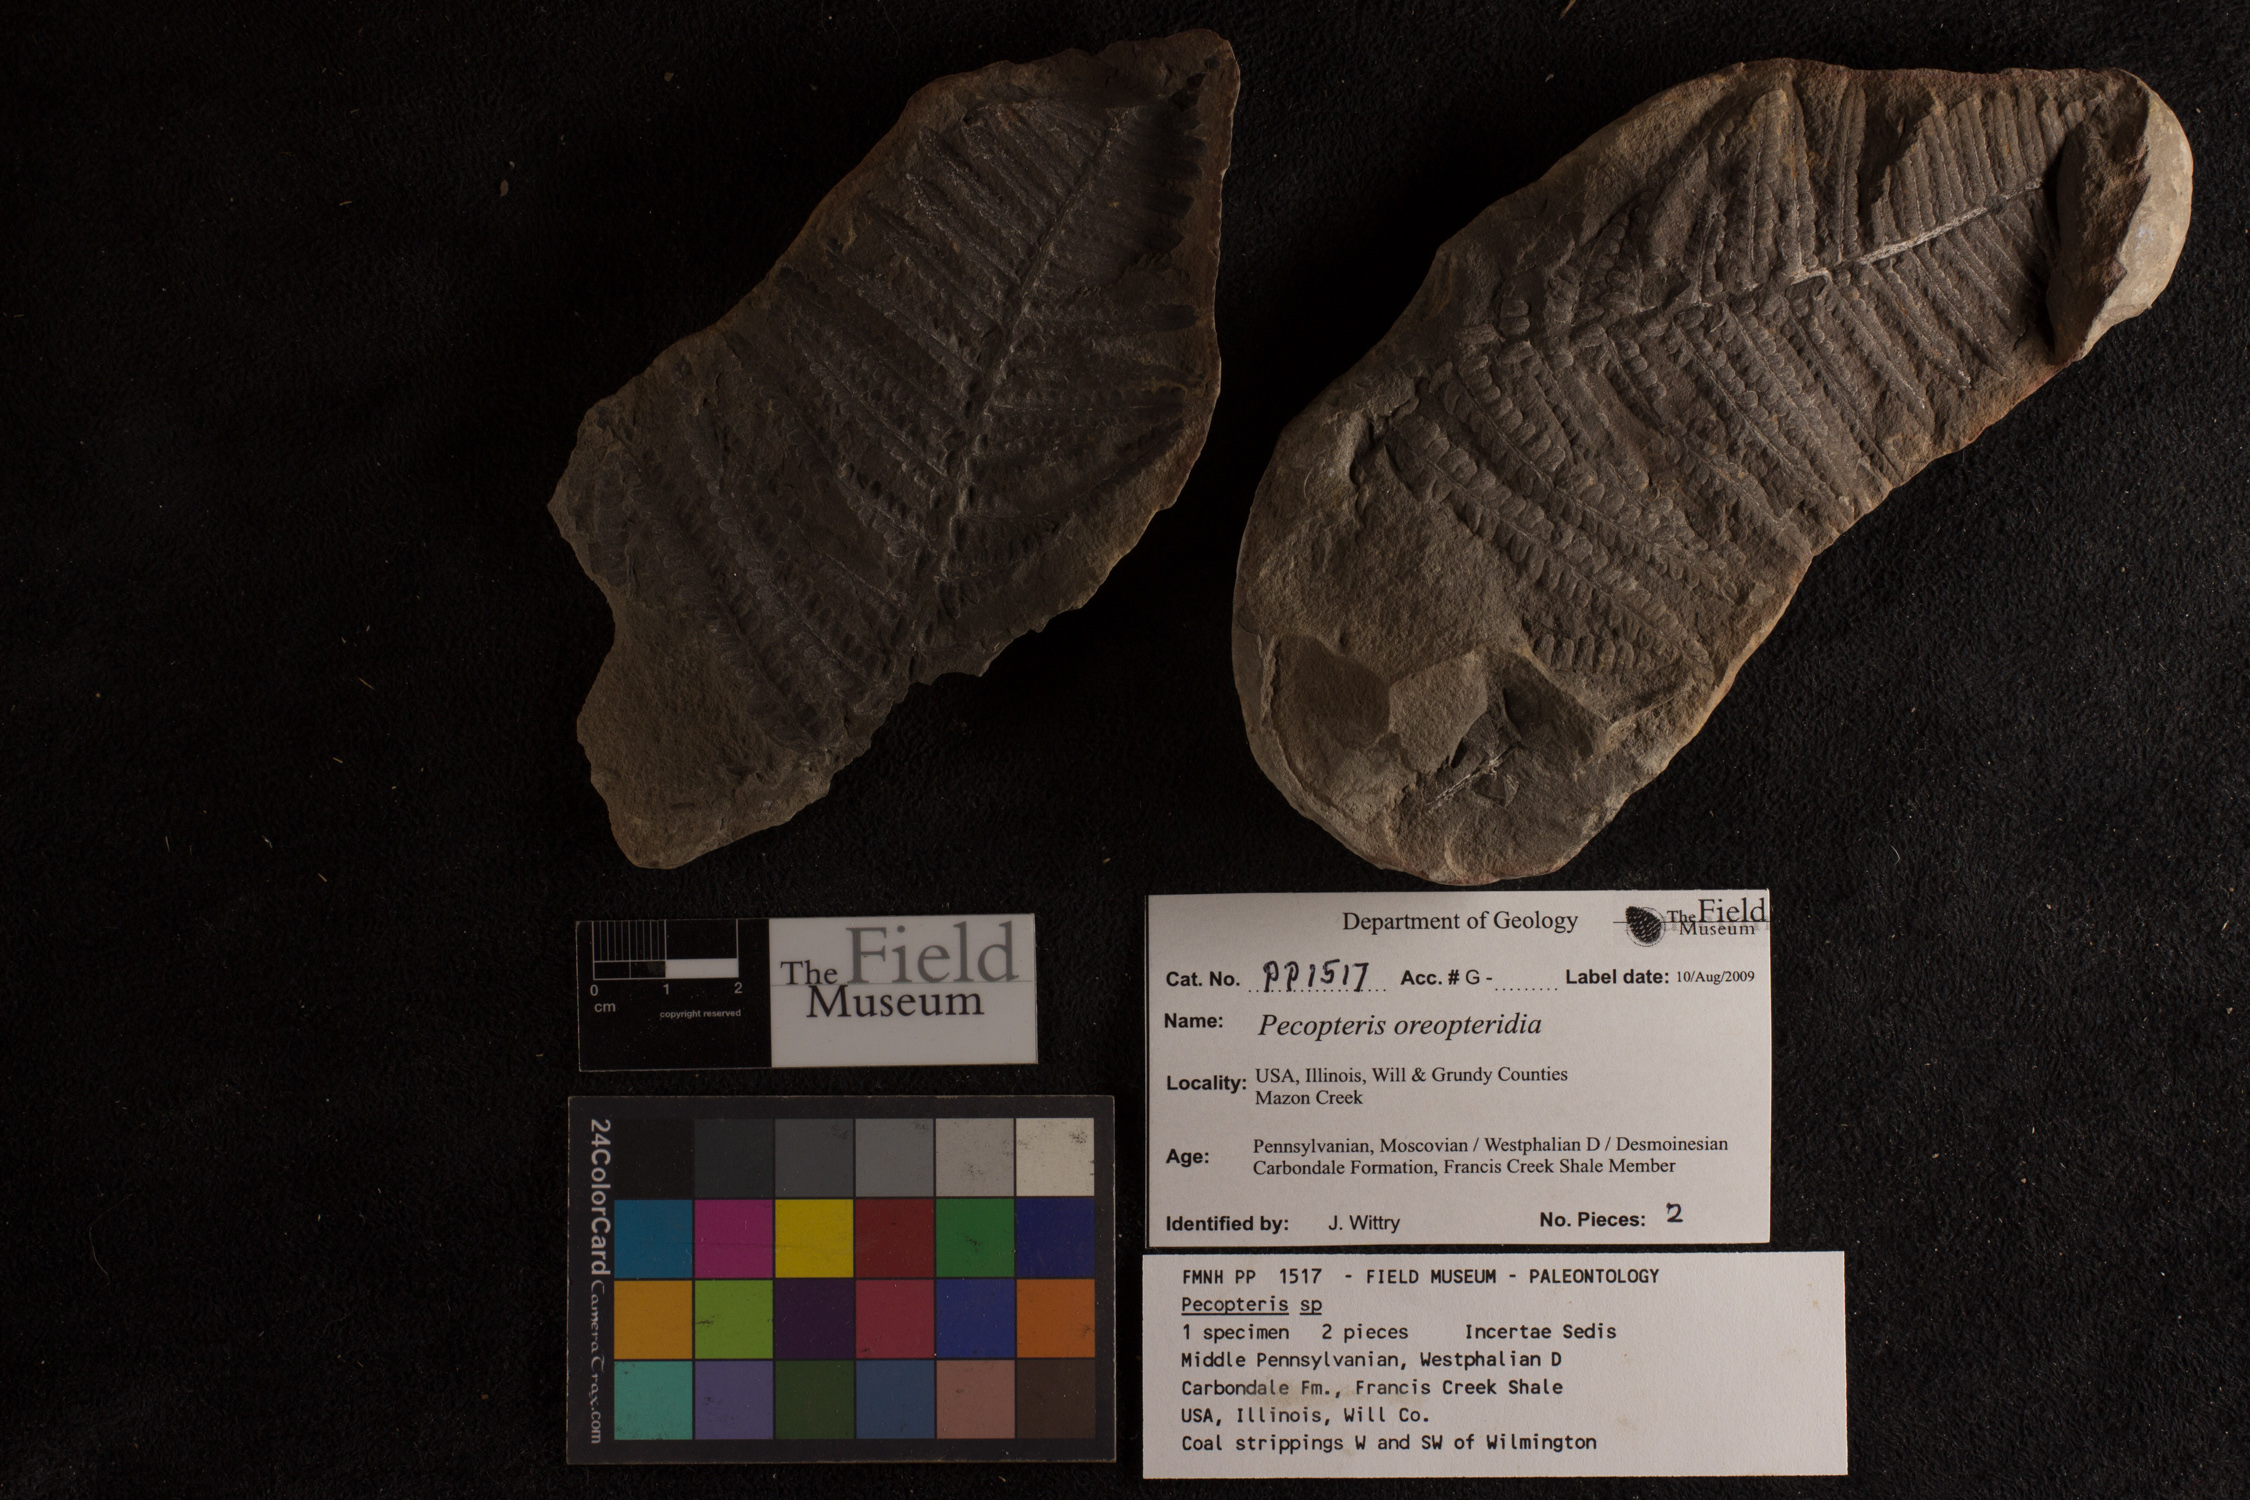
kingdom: Plantae
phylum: Tracheophyta
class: Polypodiopsida
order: Marattiales
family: Asterothecaceae
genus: Pecopteris
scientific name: Pecopteris
